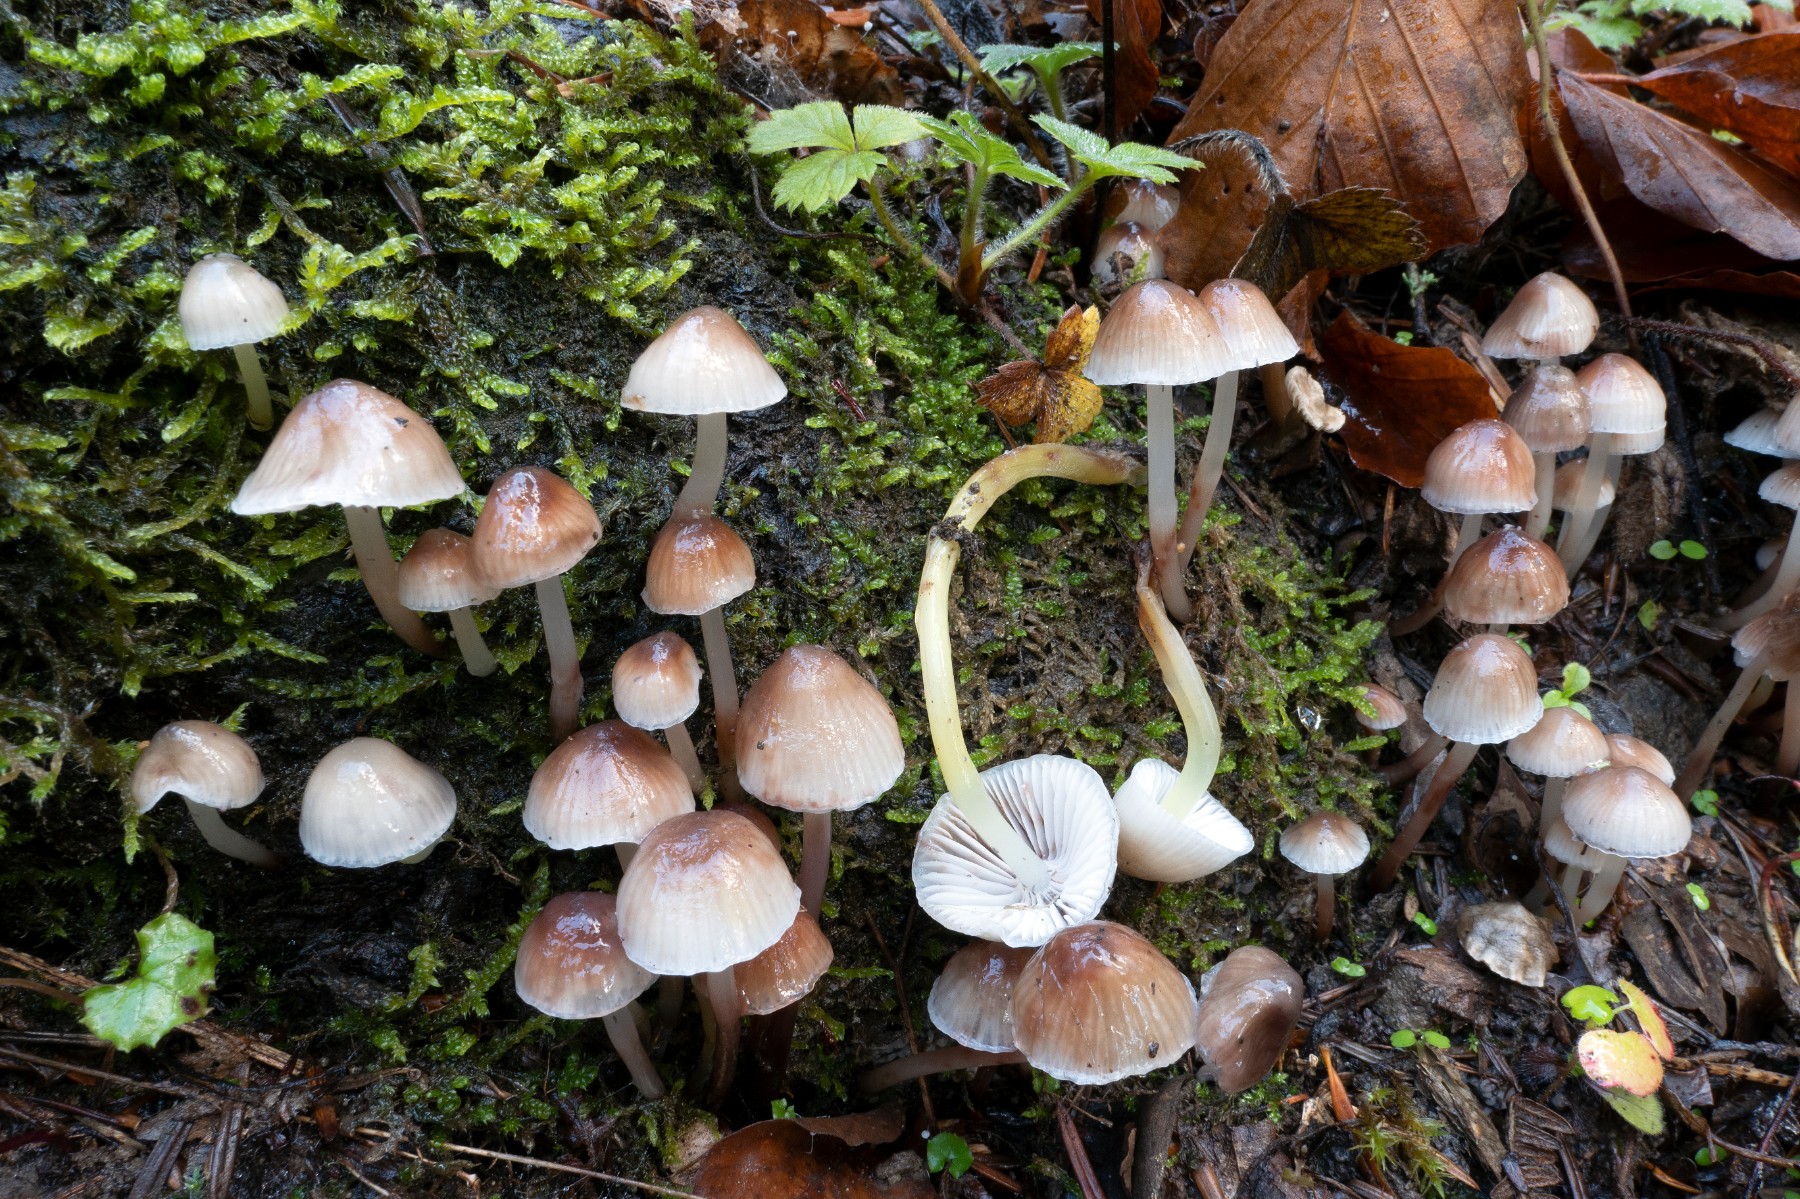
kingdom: Fungi
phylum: Basidiomycota
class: Agaricomycetes
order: Agaricales
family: Mycenaceae
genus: Mycena
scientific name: Mycena epipterygia
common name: gulstokket huesvamp
